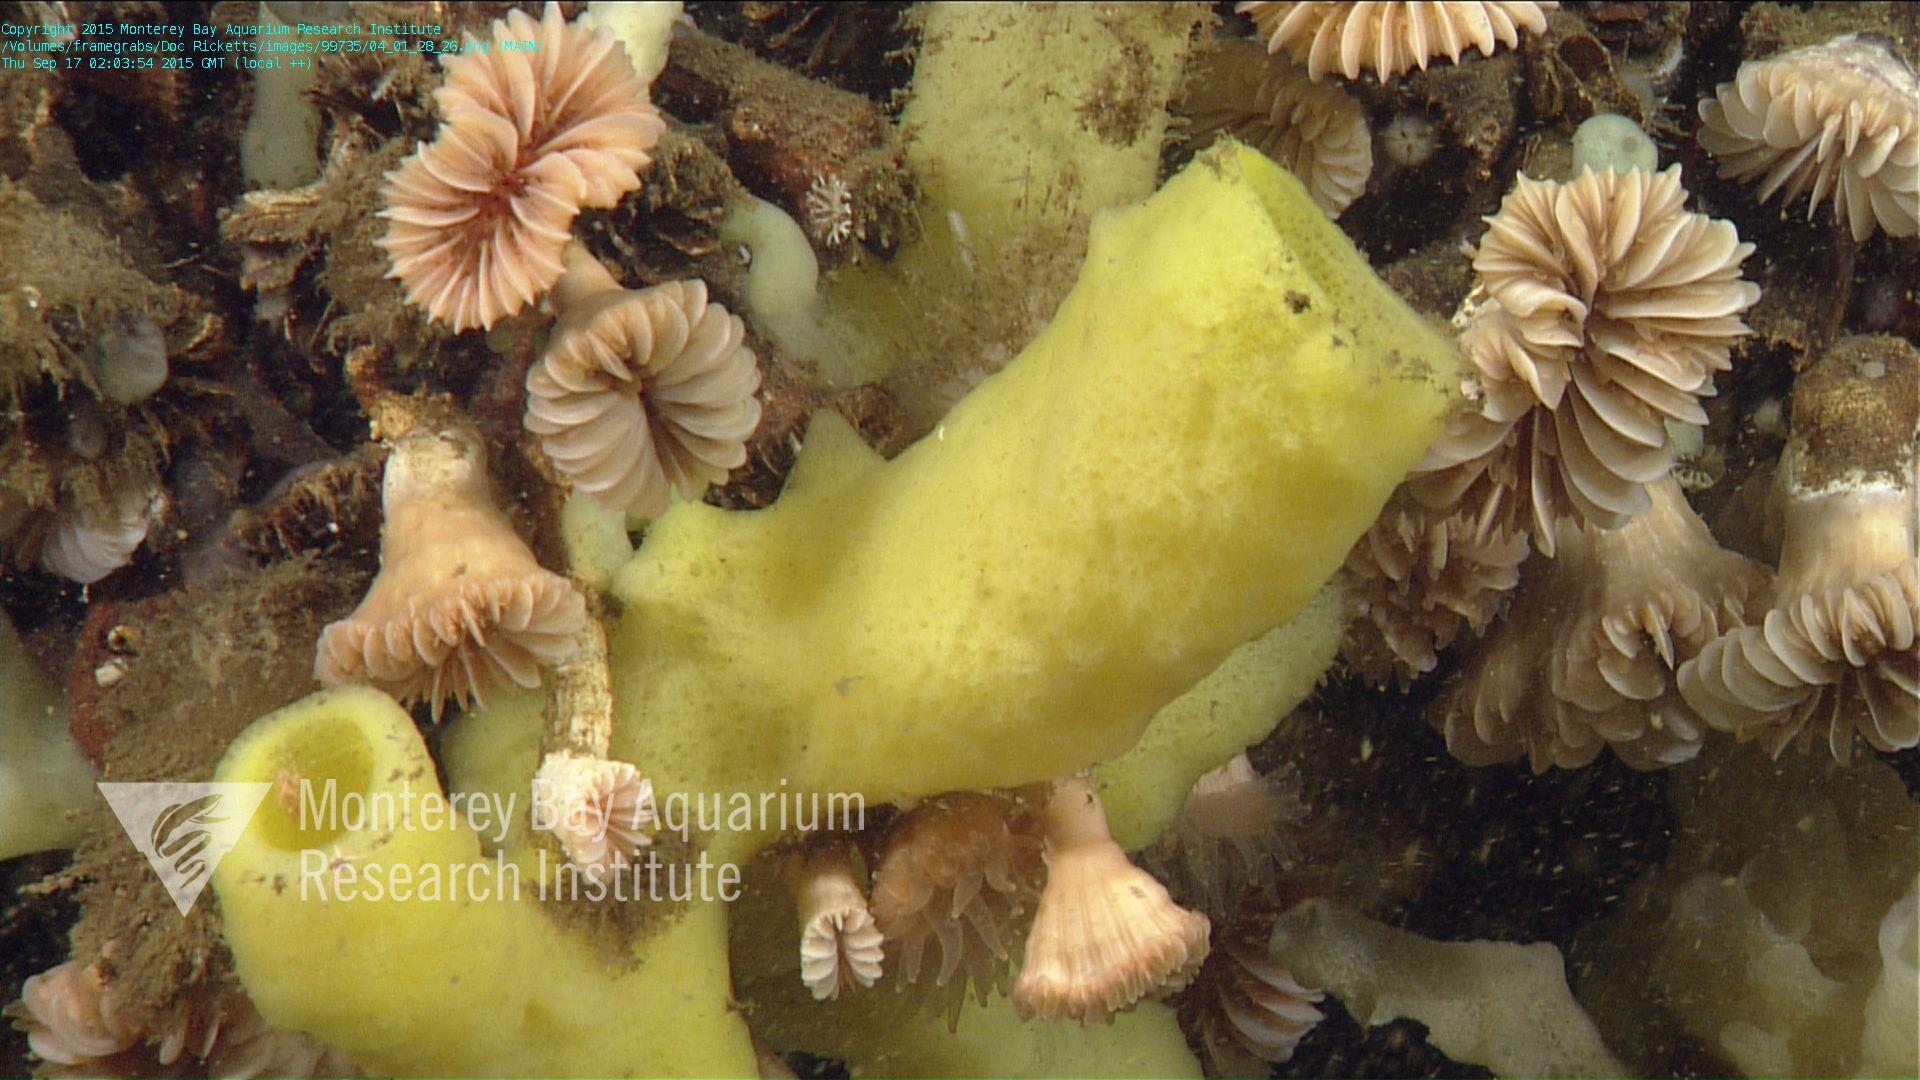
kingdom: Animalia
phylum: Cnidaria
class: Anthozoa
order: Scleractinia
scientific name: Scleractinia
